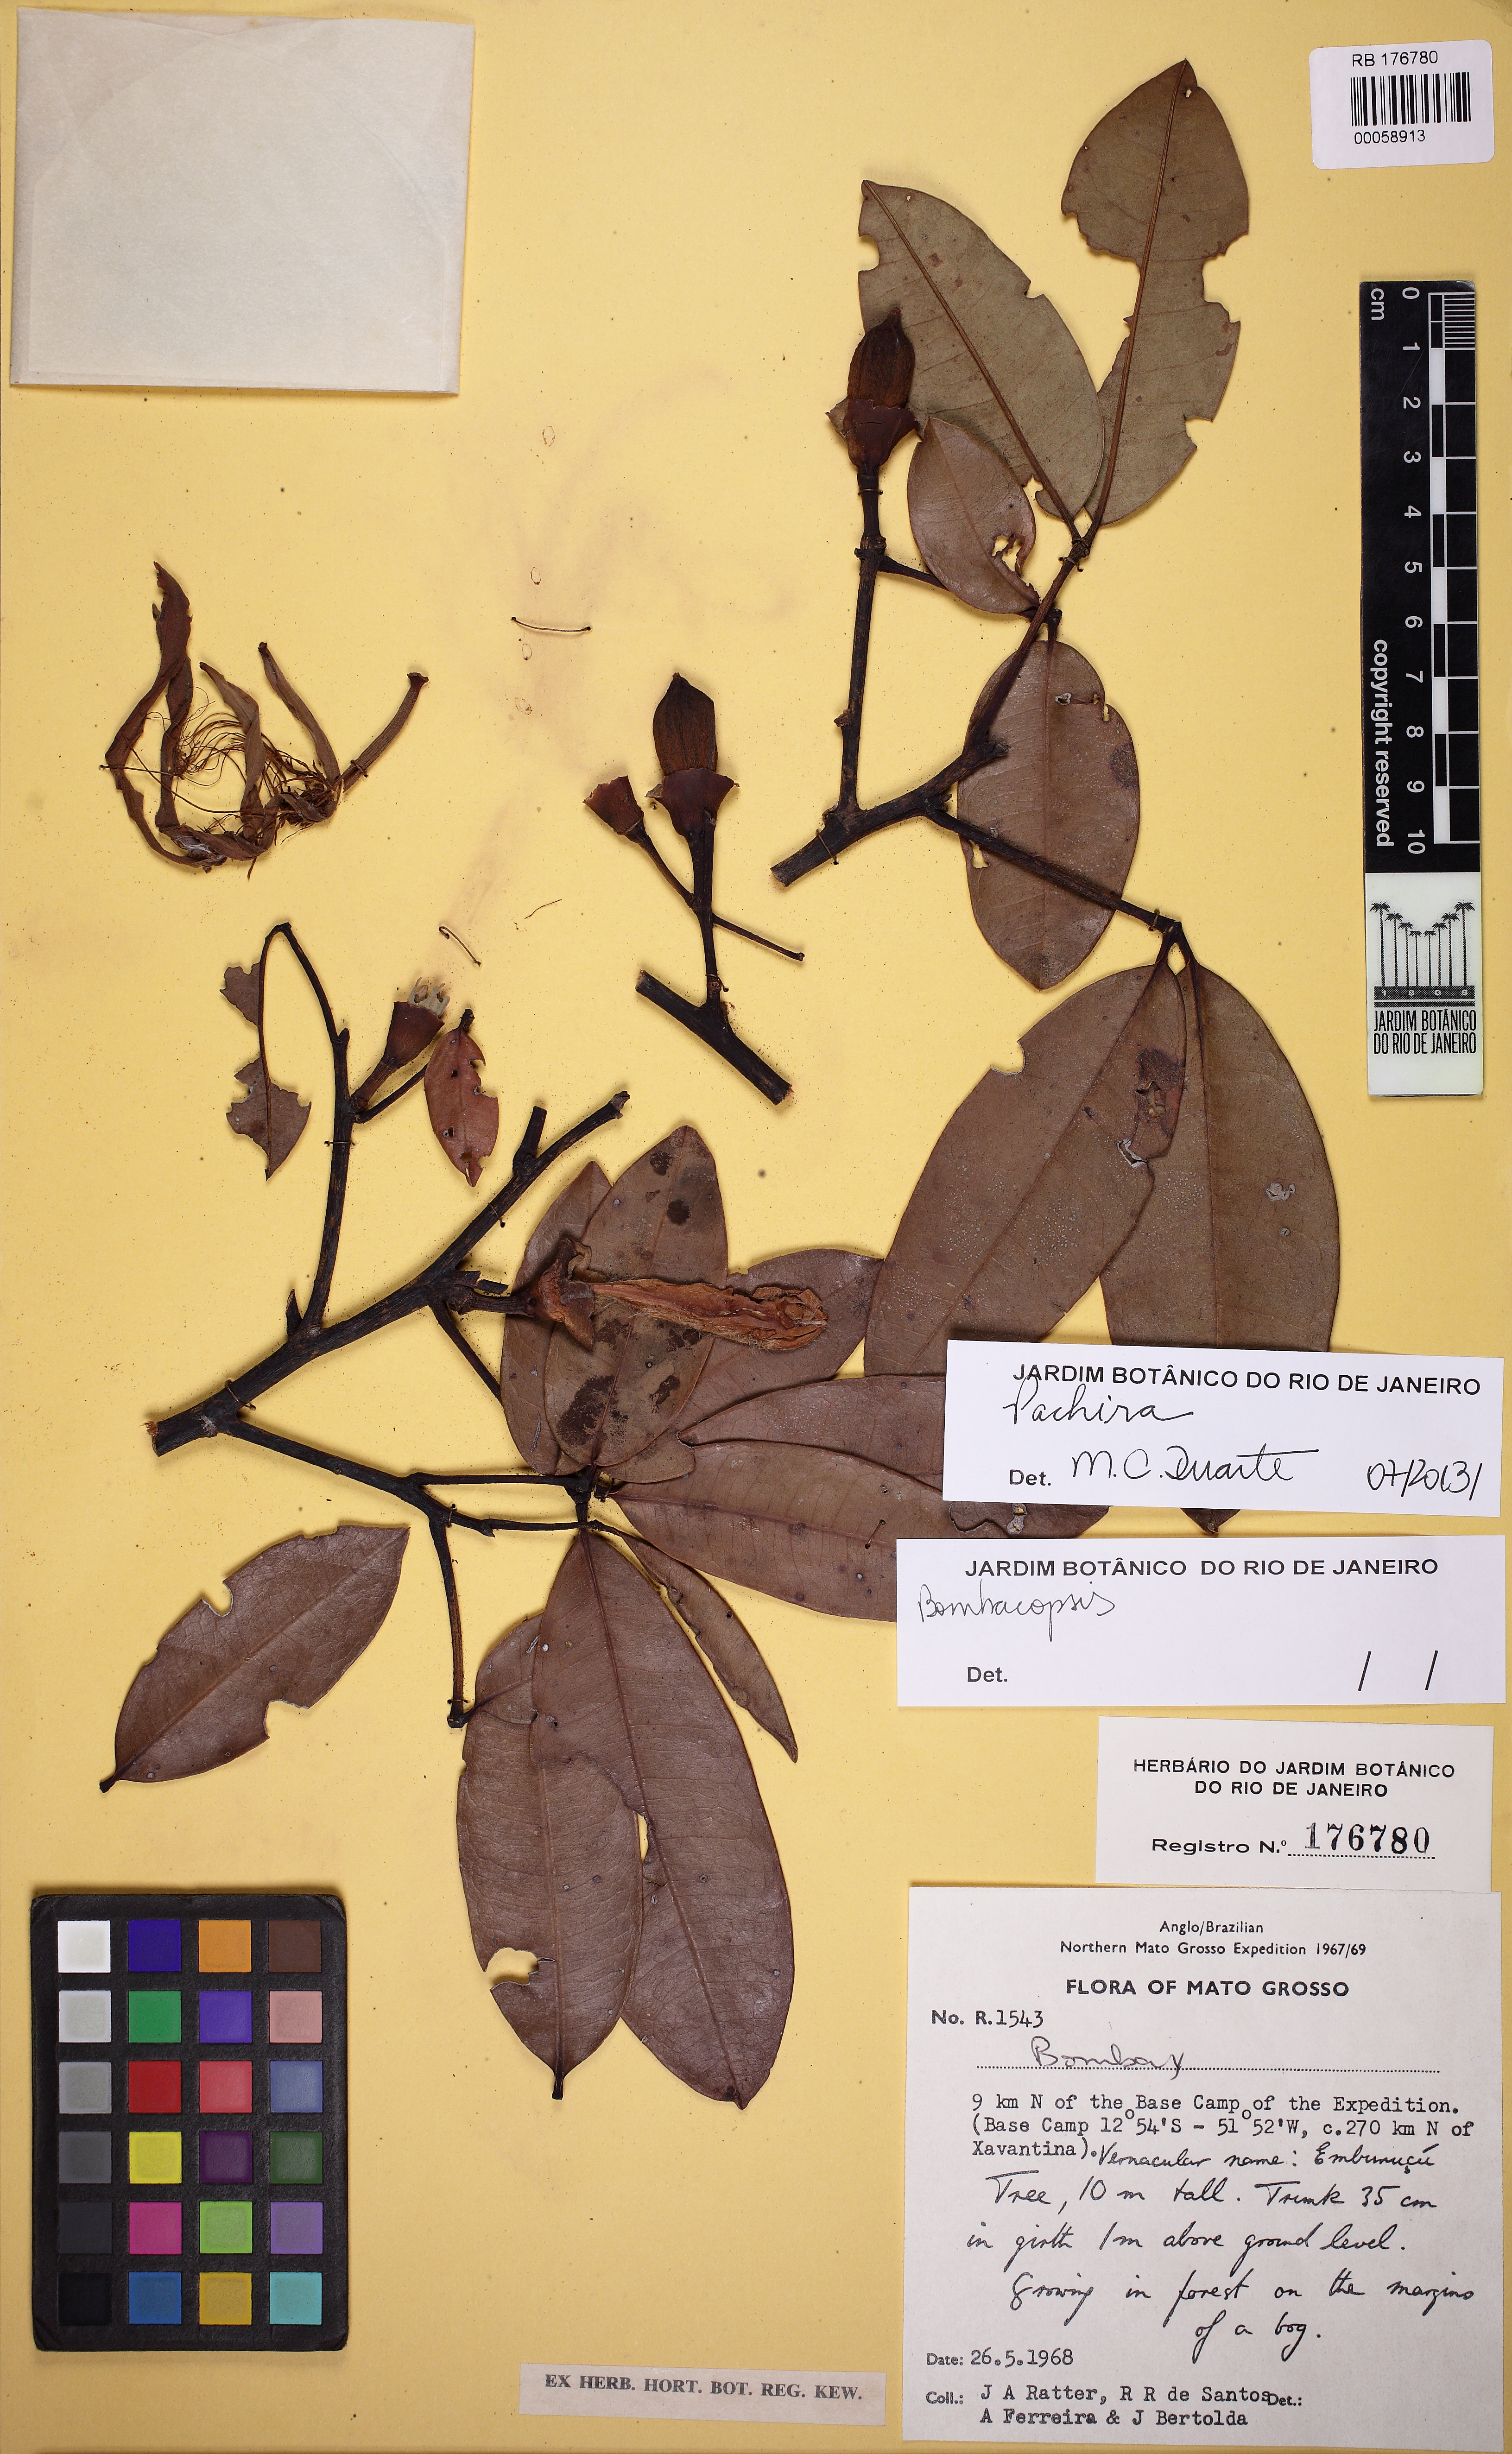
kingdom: Plantae
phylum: Tracheophyta
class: Magnoliopsida
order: Malvales
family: Malvaceae
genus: Pachira
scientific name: Pachira nitida
